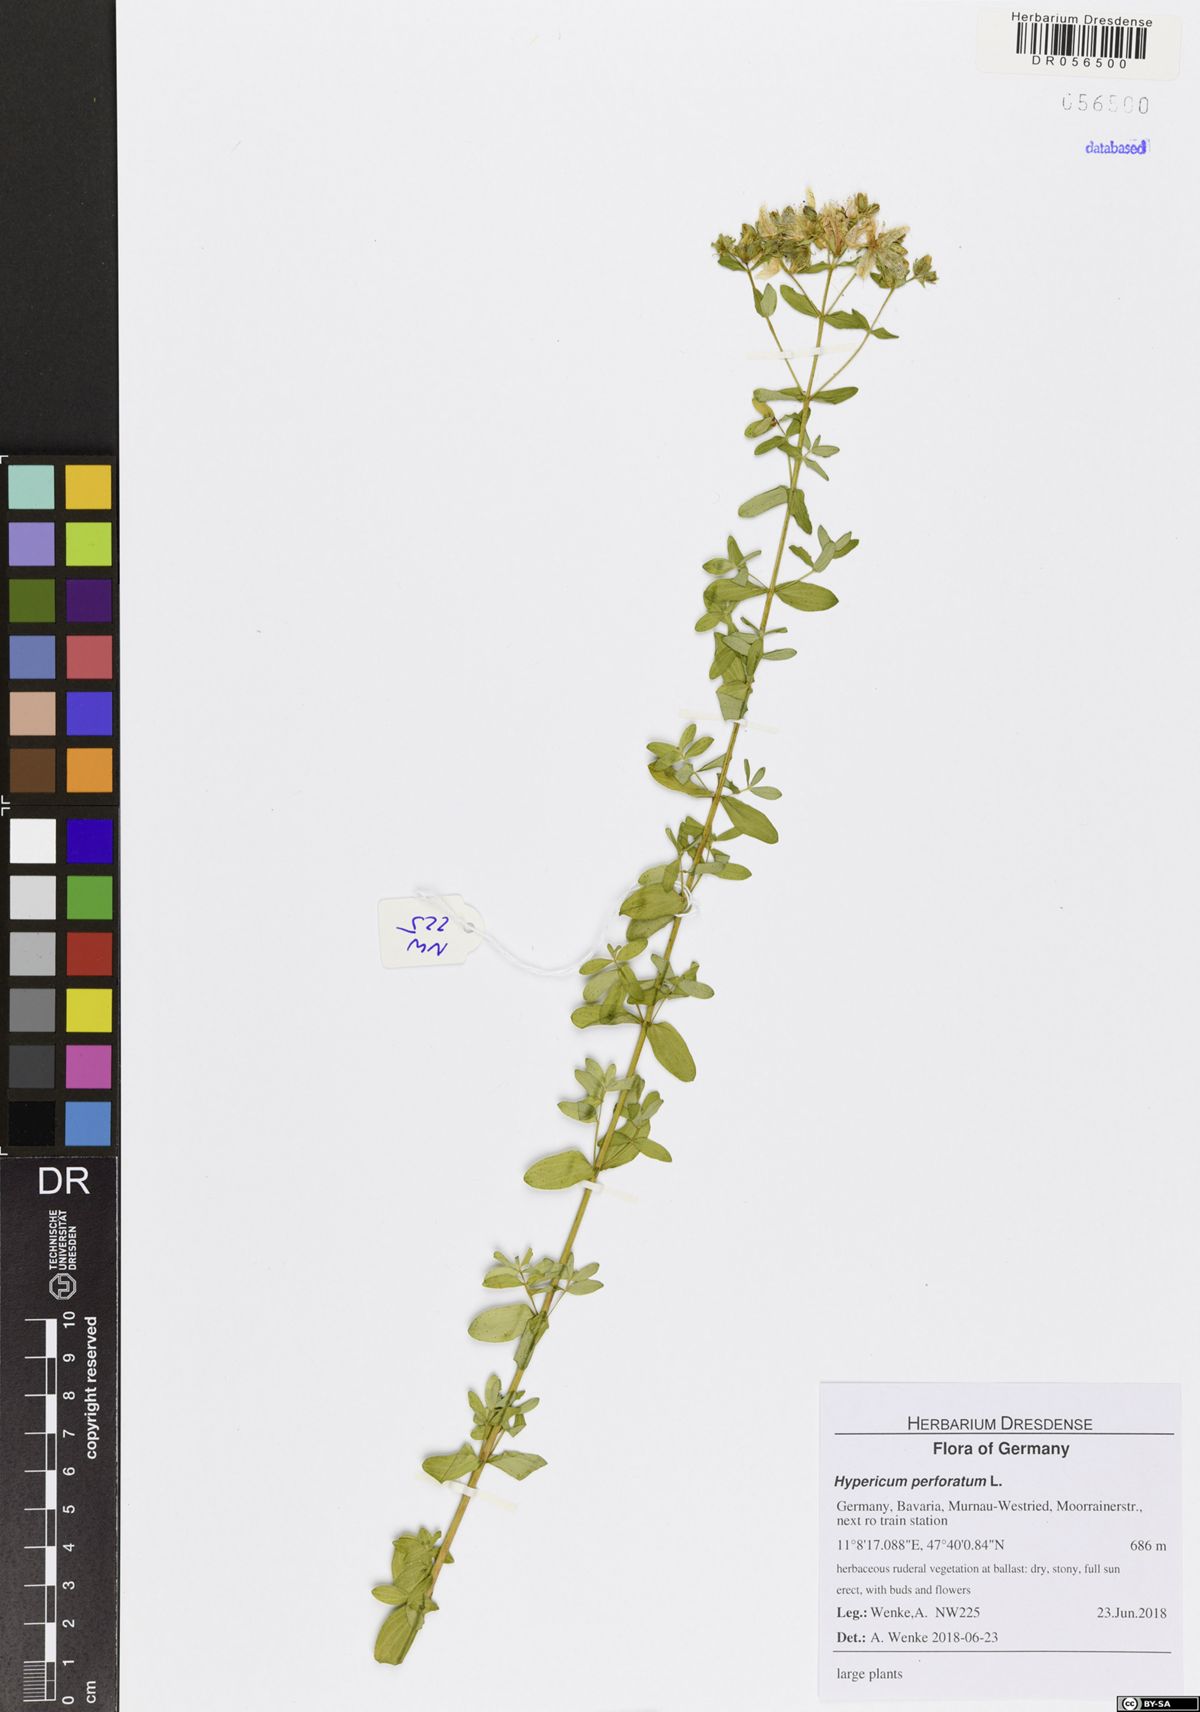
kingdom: Plantae
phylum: Tracheophyta
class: Magnoliopsida
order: Malpighiales
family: Hypericaceae
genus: Hypericum
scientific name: Hypericum perforatum
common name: Common st. johnswort
